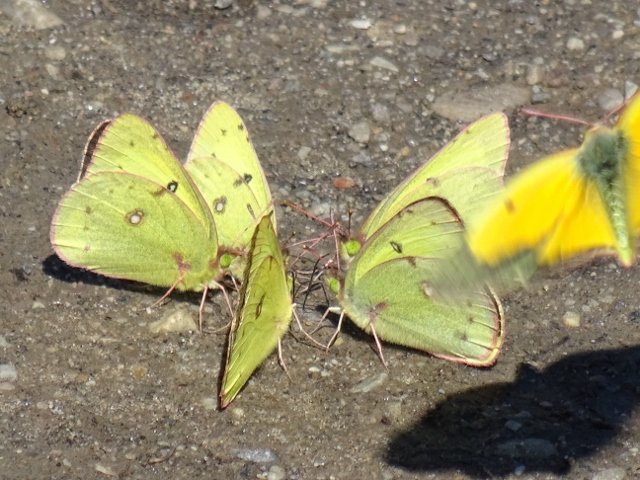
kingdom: Animalia
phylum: Arthropoda
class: Insecta
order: Lepidoptera
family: Pieridae
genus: Colias
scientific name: Colias eurytheme
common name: Orange Sulphur
